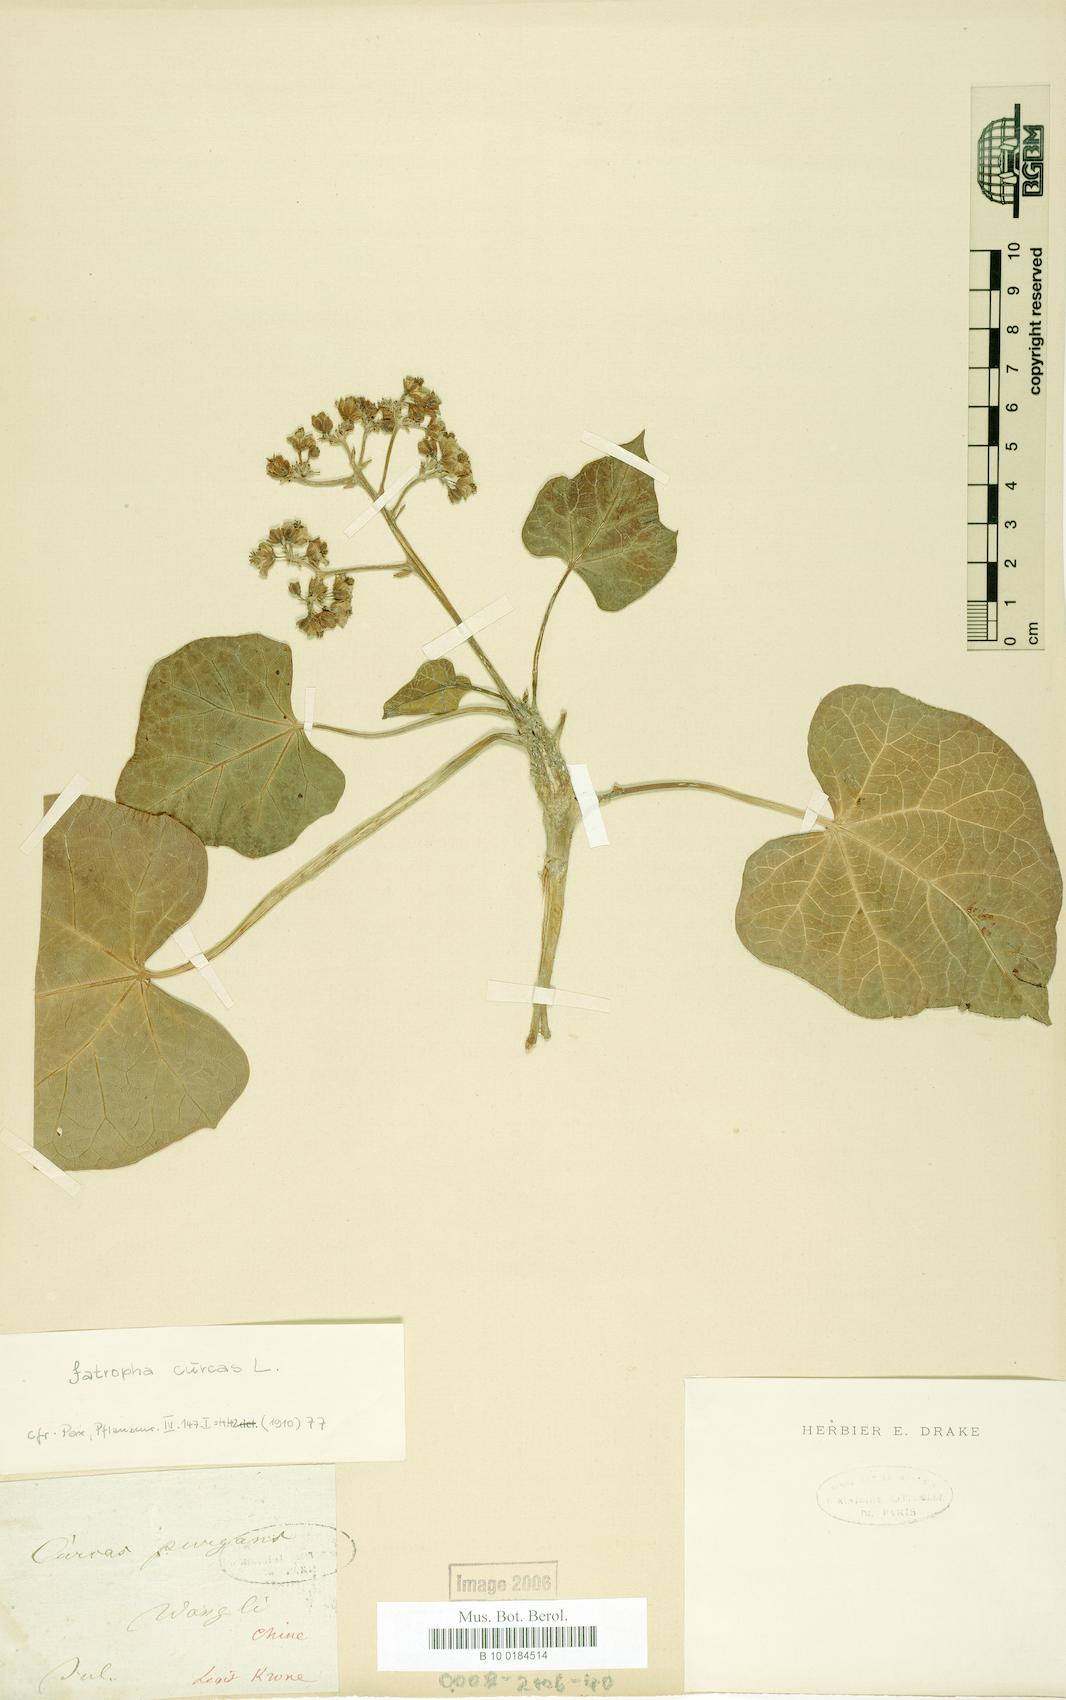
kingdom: Plantae
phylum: Tracheophyta
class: Magnoliopsida
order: Malpighiales
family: Euphorbiaceae
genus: Jatropha
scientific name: Jatropha curcas
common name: Barbados nut
